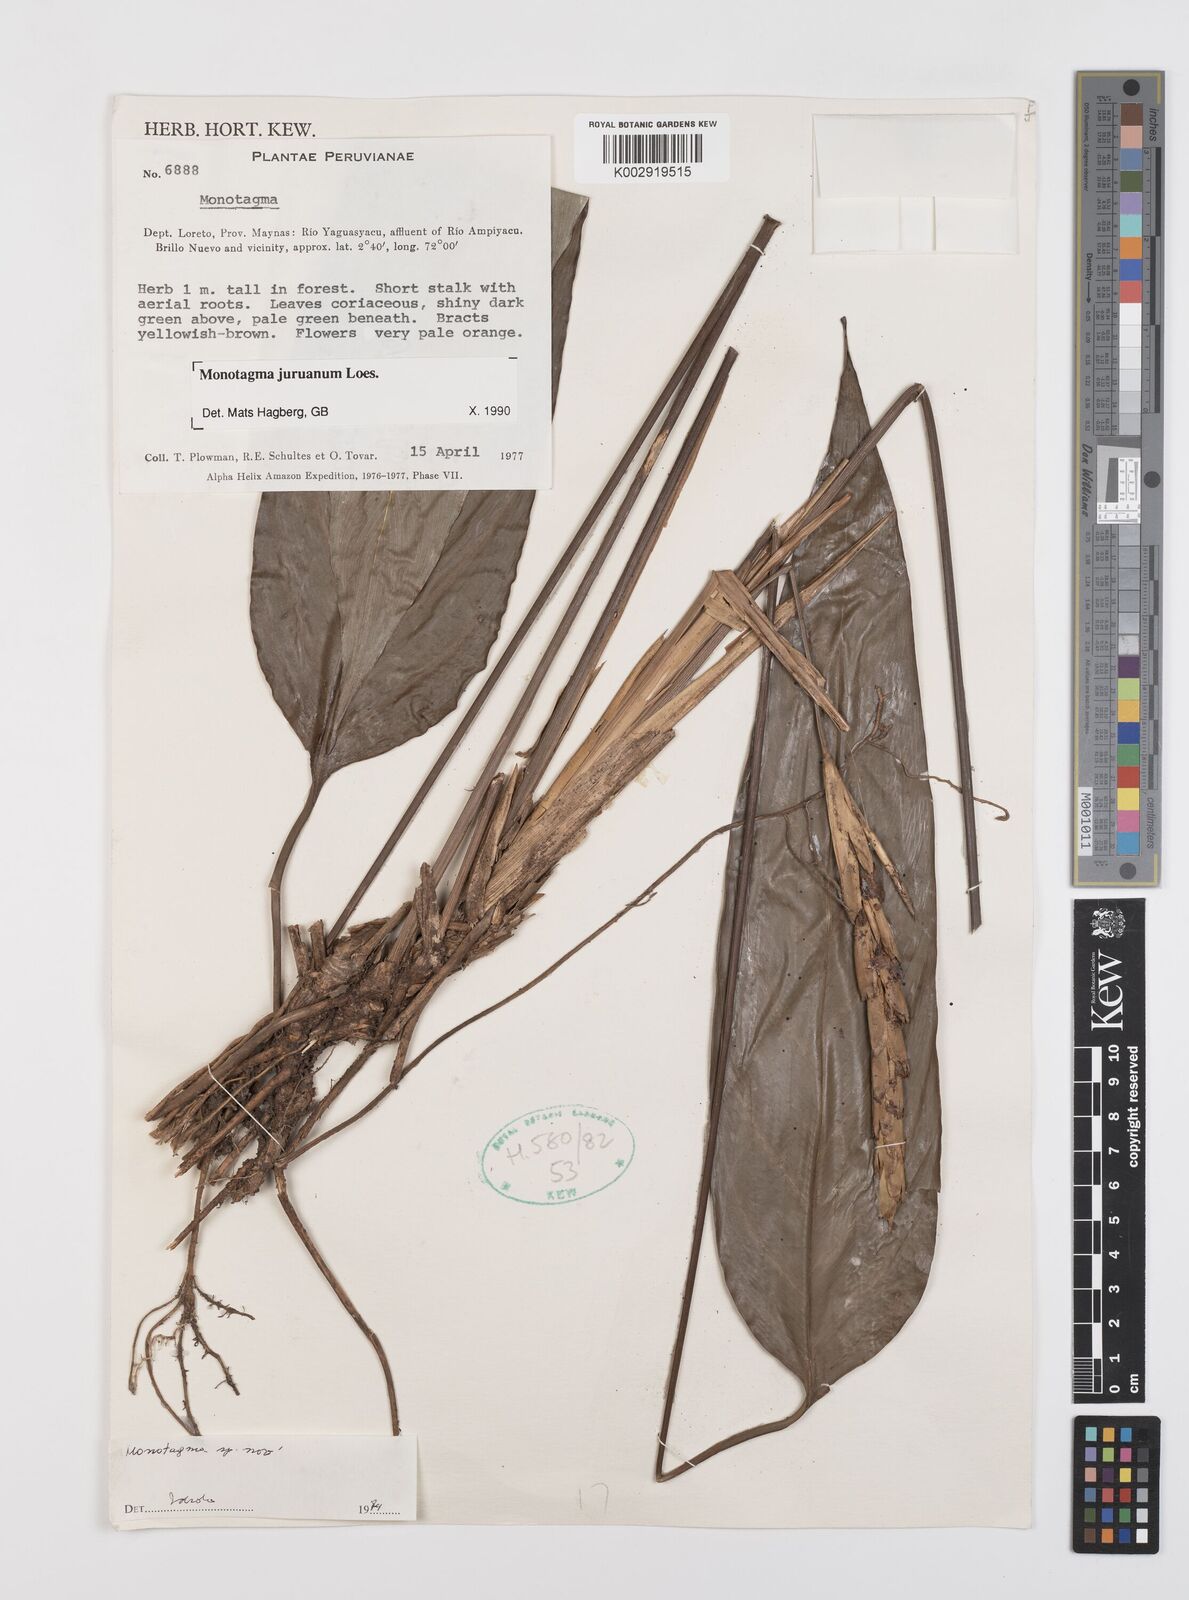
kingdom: Plantae
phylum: Tracheophyta
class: Liliopsida
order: Zingiberales
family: Marantaceae
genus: Monotagma
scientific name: Monotagma juruanum
